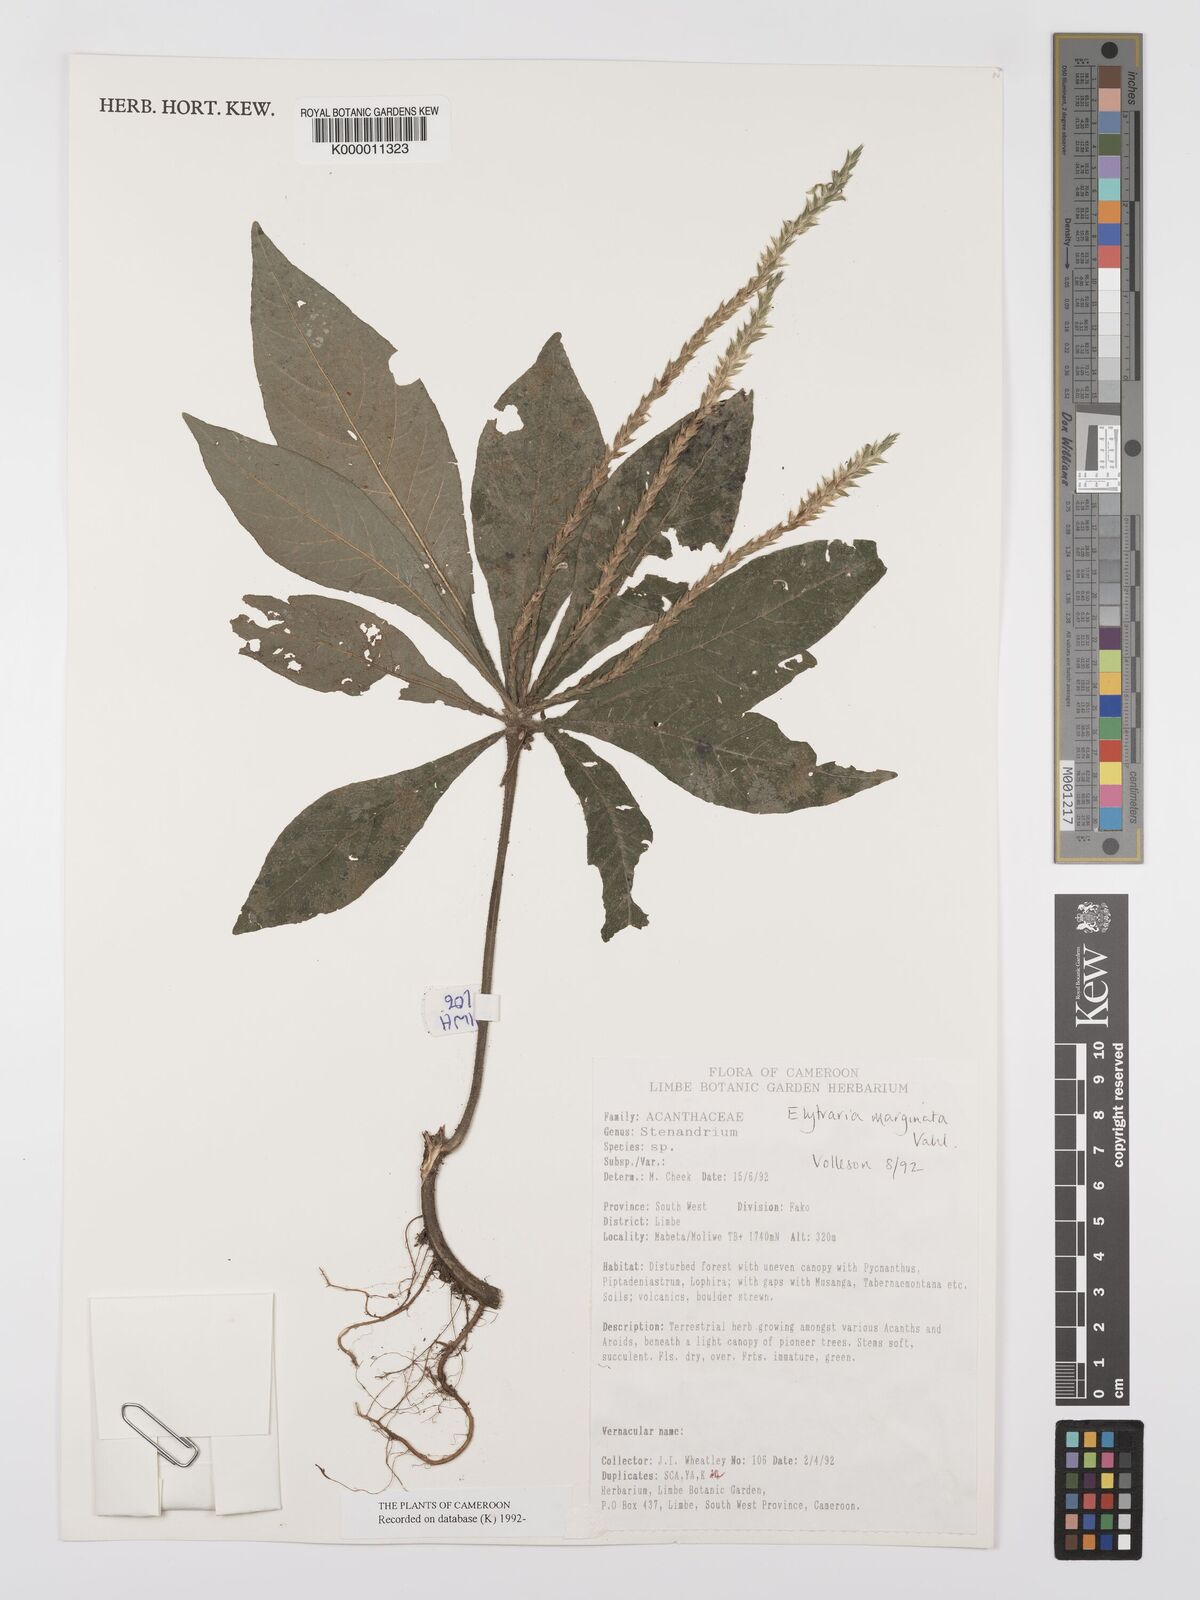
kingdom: Plantae
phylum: Tracheophyta
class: Magnoliopsida
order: Lamiales
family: Acanthaceae
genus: Elytraria
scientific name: Elytraria marginata
